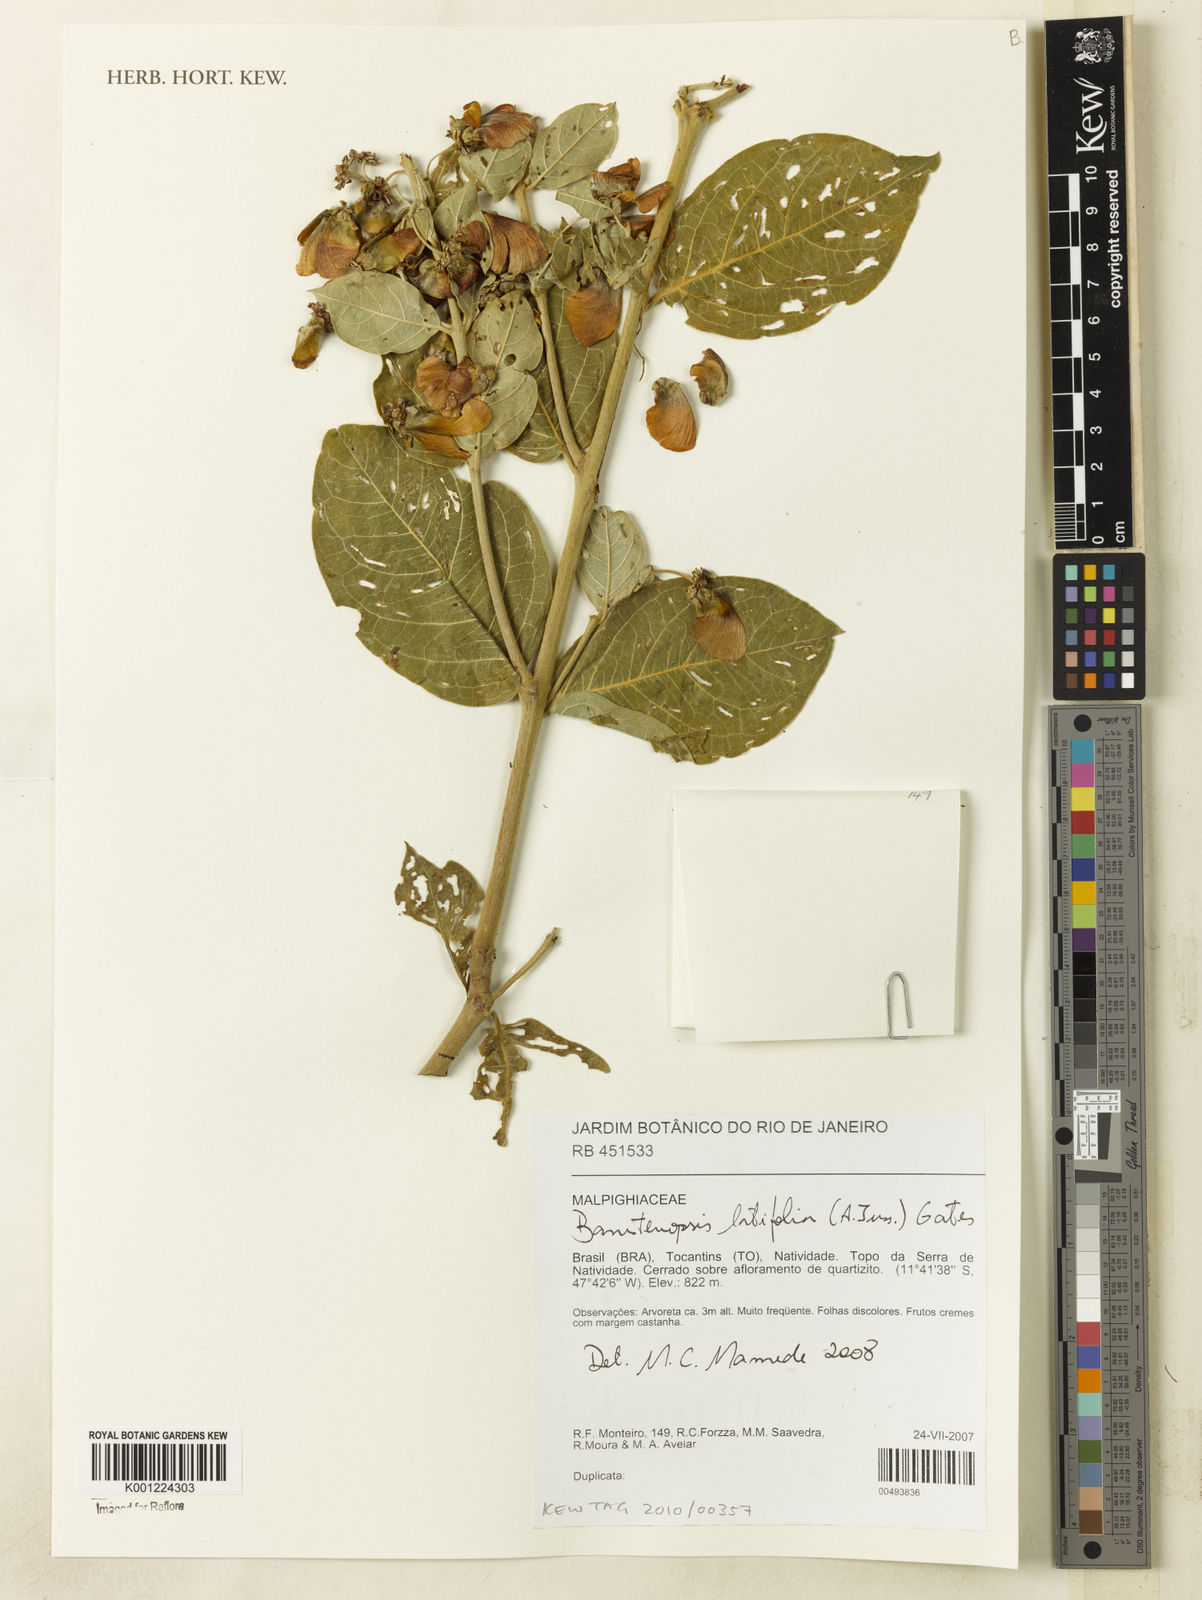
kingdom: Plantae
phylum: Tracheophyta
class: Magnoliopsida
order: Malpighiales
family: Malpighiaceae
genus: Banisteriopsis
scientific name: Banisteriopsis latifolia
